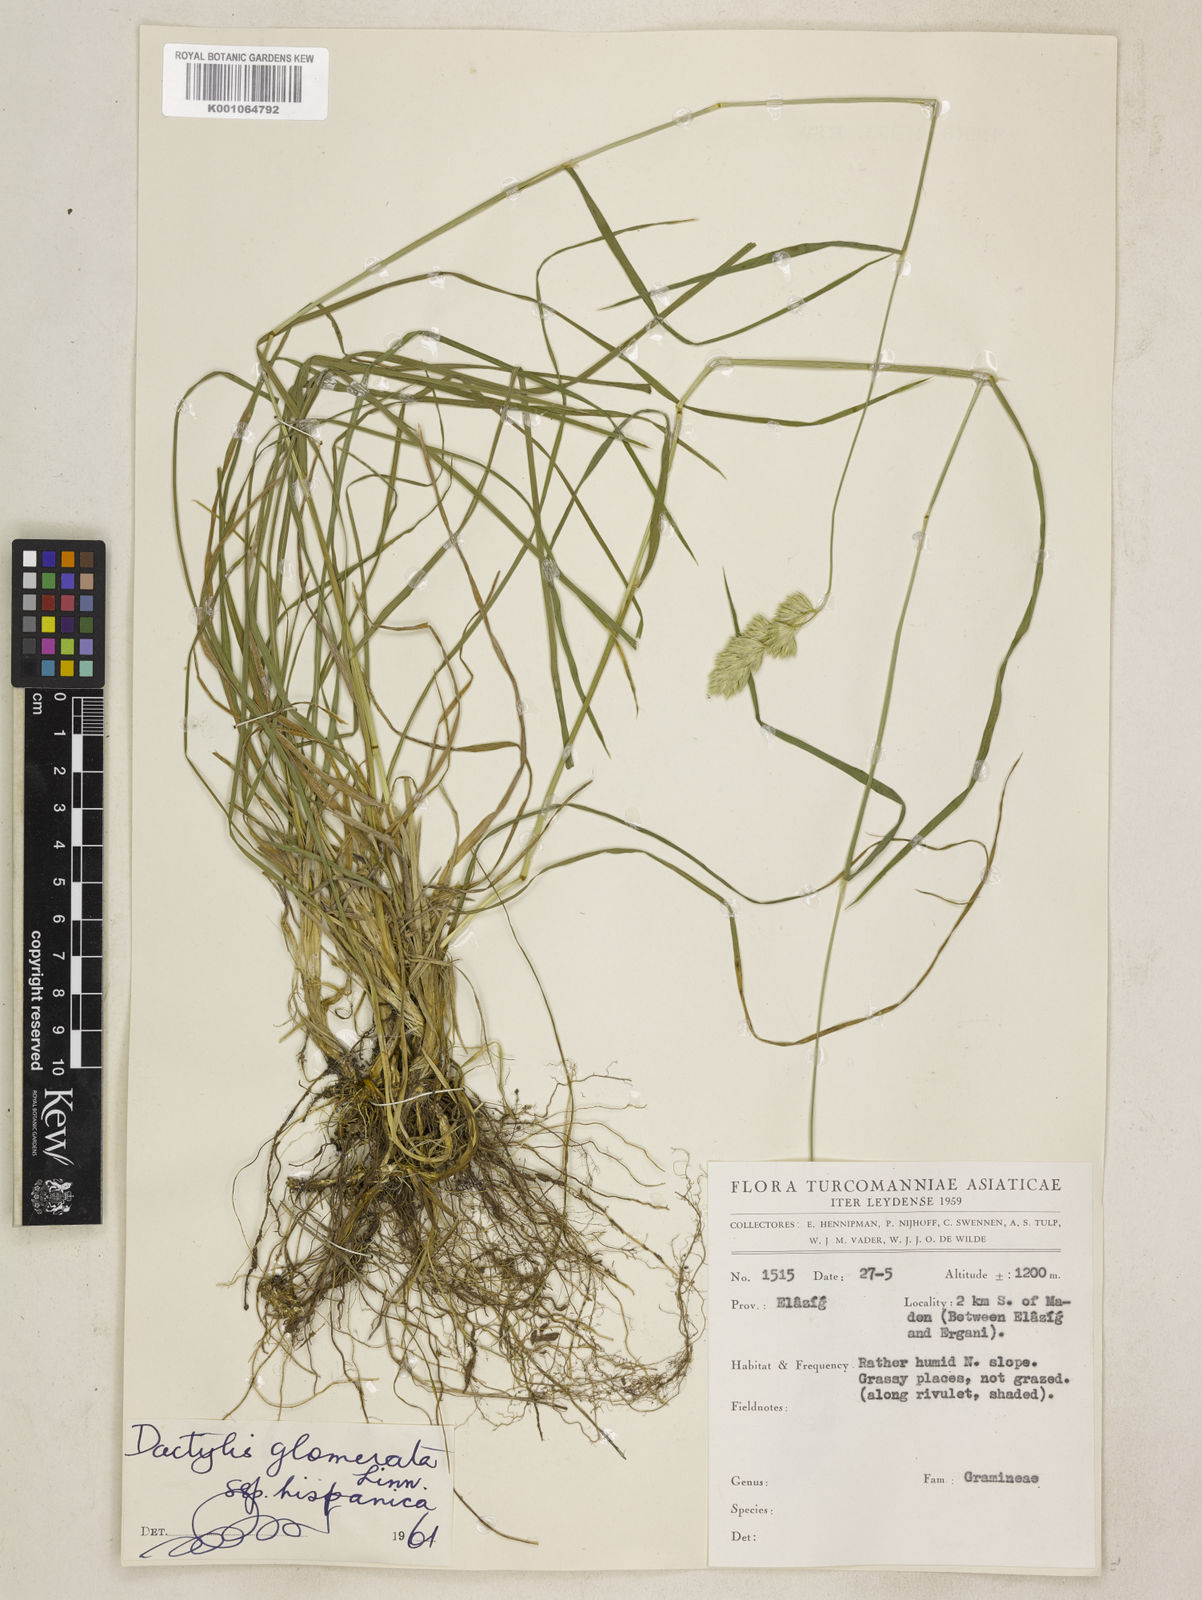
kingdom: Plantae
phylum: Tracheophyta
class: Liliopsida
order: Poales
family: Poaceae
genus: Dactylis
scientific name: Dactylis glomerata
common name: Orchardgrass
